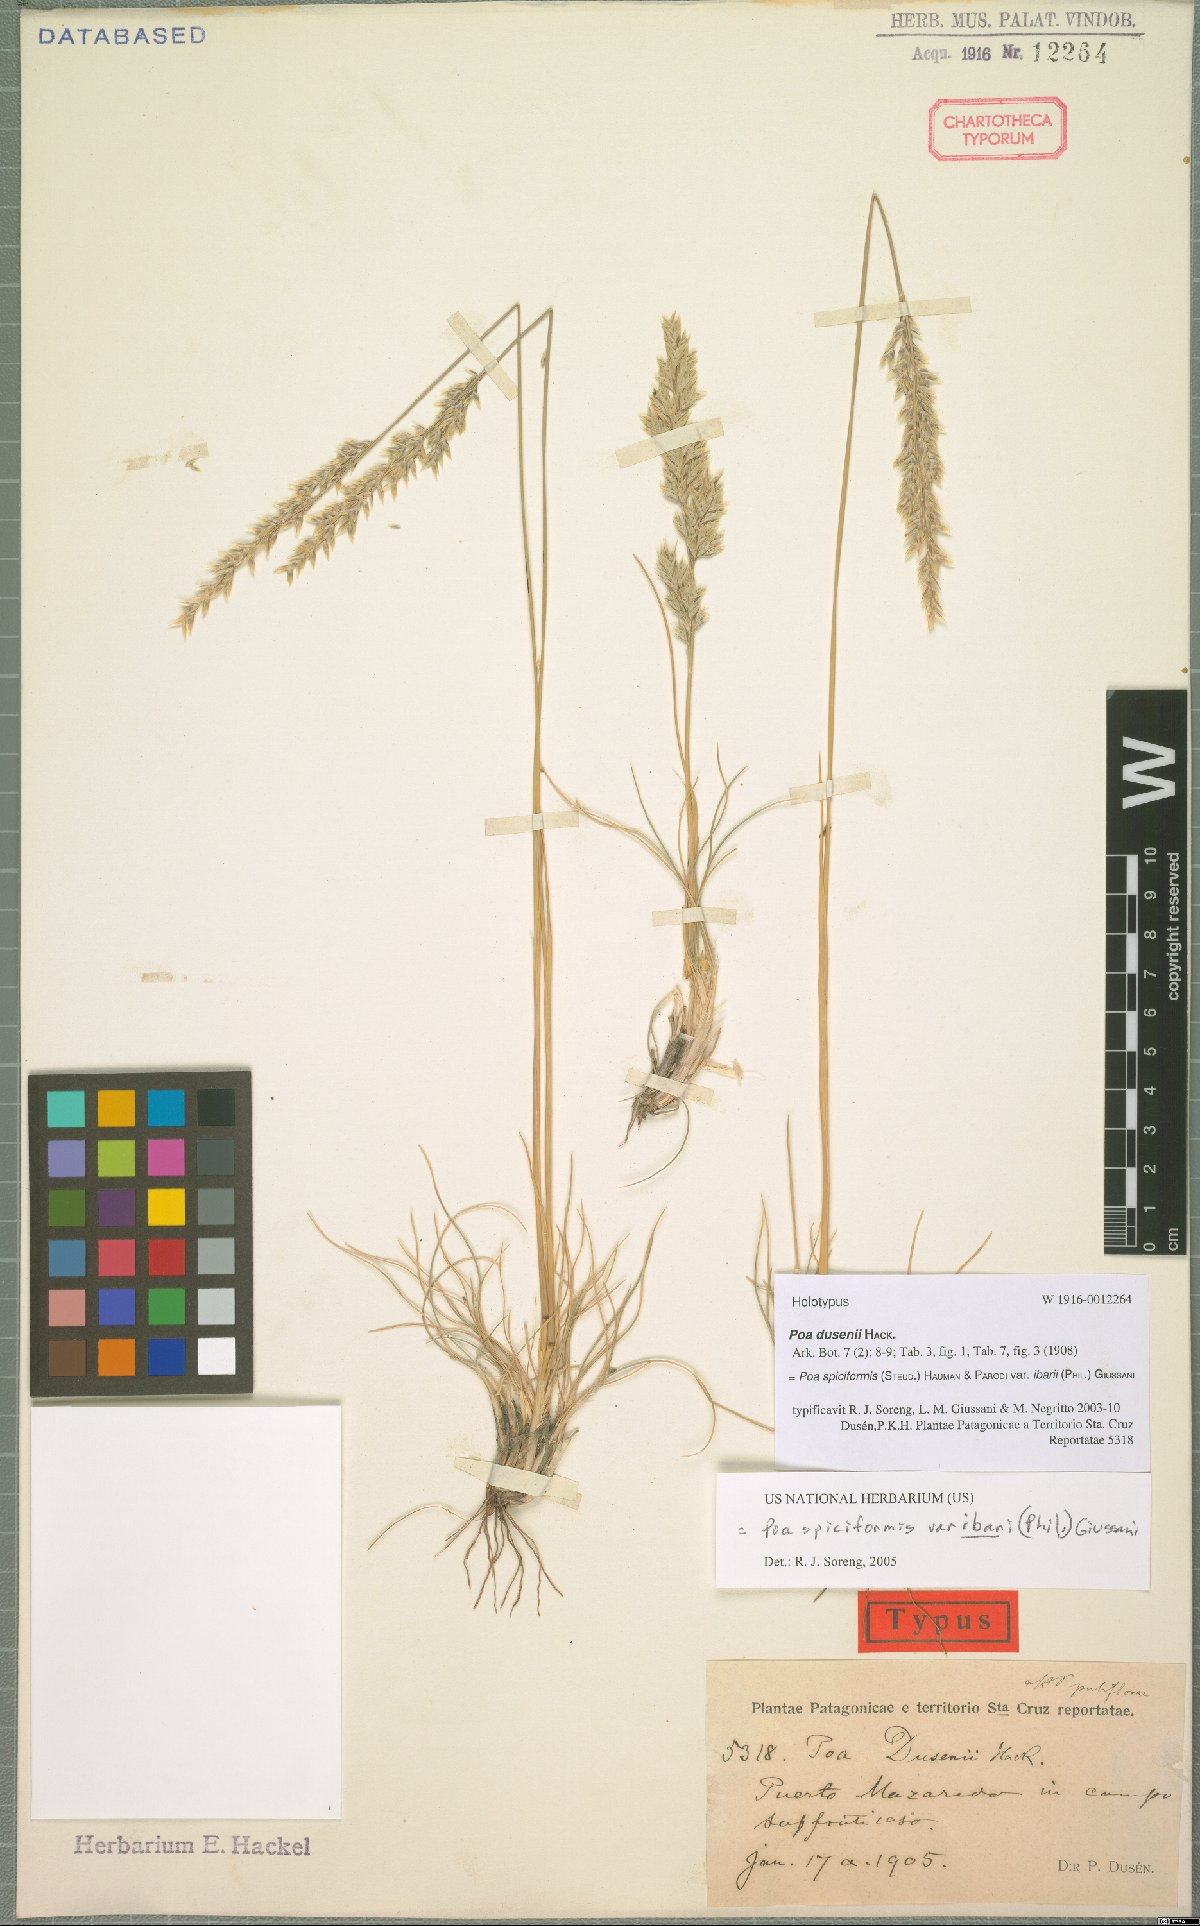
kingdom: Plantae
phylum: Tracheophyta
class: Liliopsida
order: Poales
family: Poaceae
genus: Poa
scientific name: Poa ibarii
